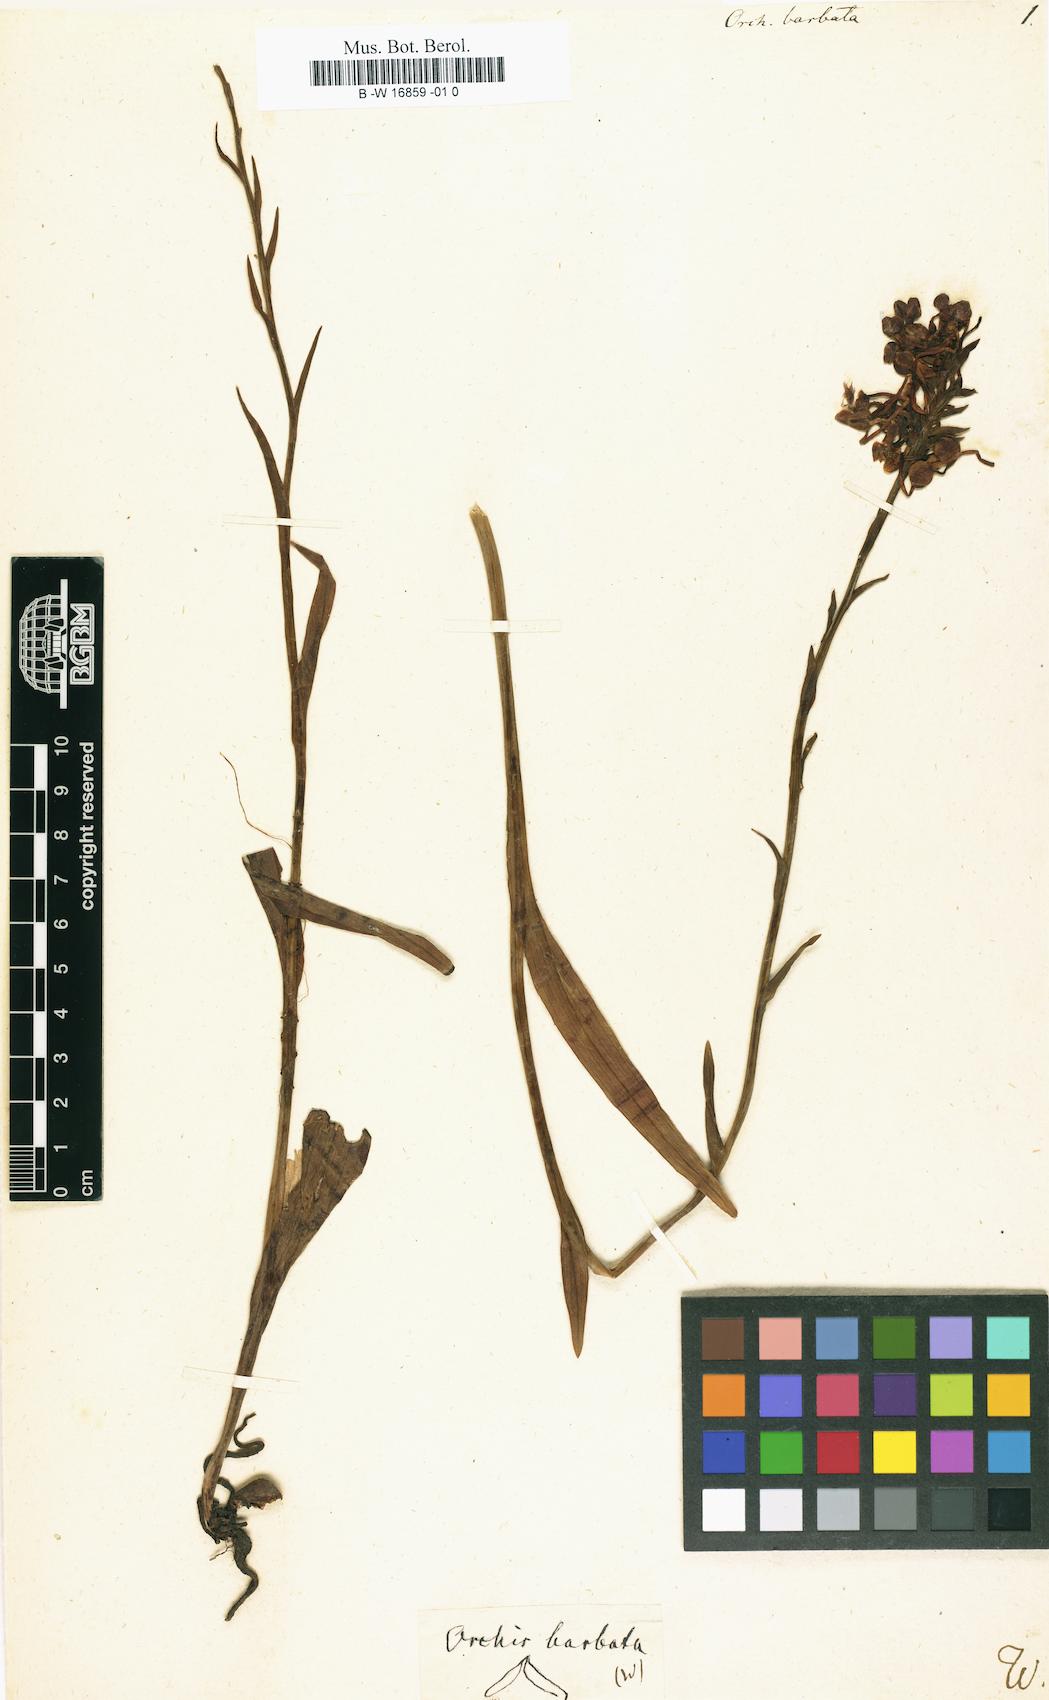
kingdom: Plantae
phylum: Tracheophyta
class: Liliopsida
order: Asparagales
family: Orchidaceae
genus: Disa
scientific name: Disa barbata
